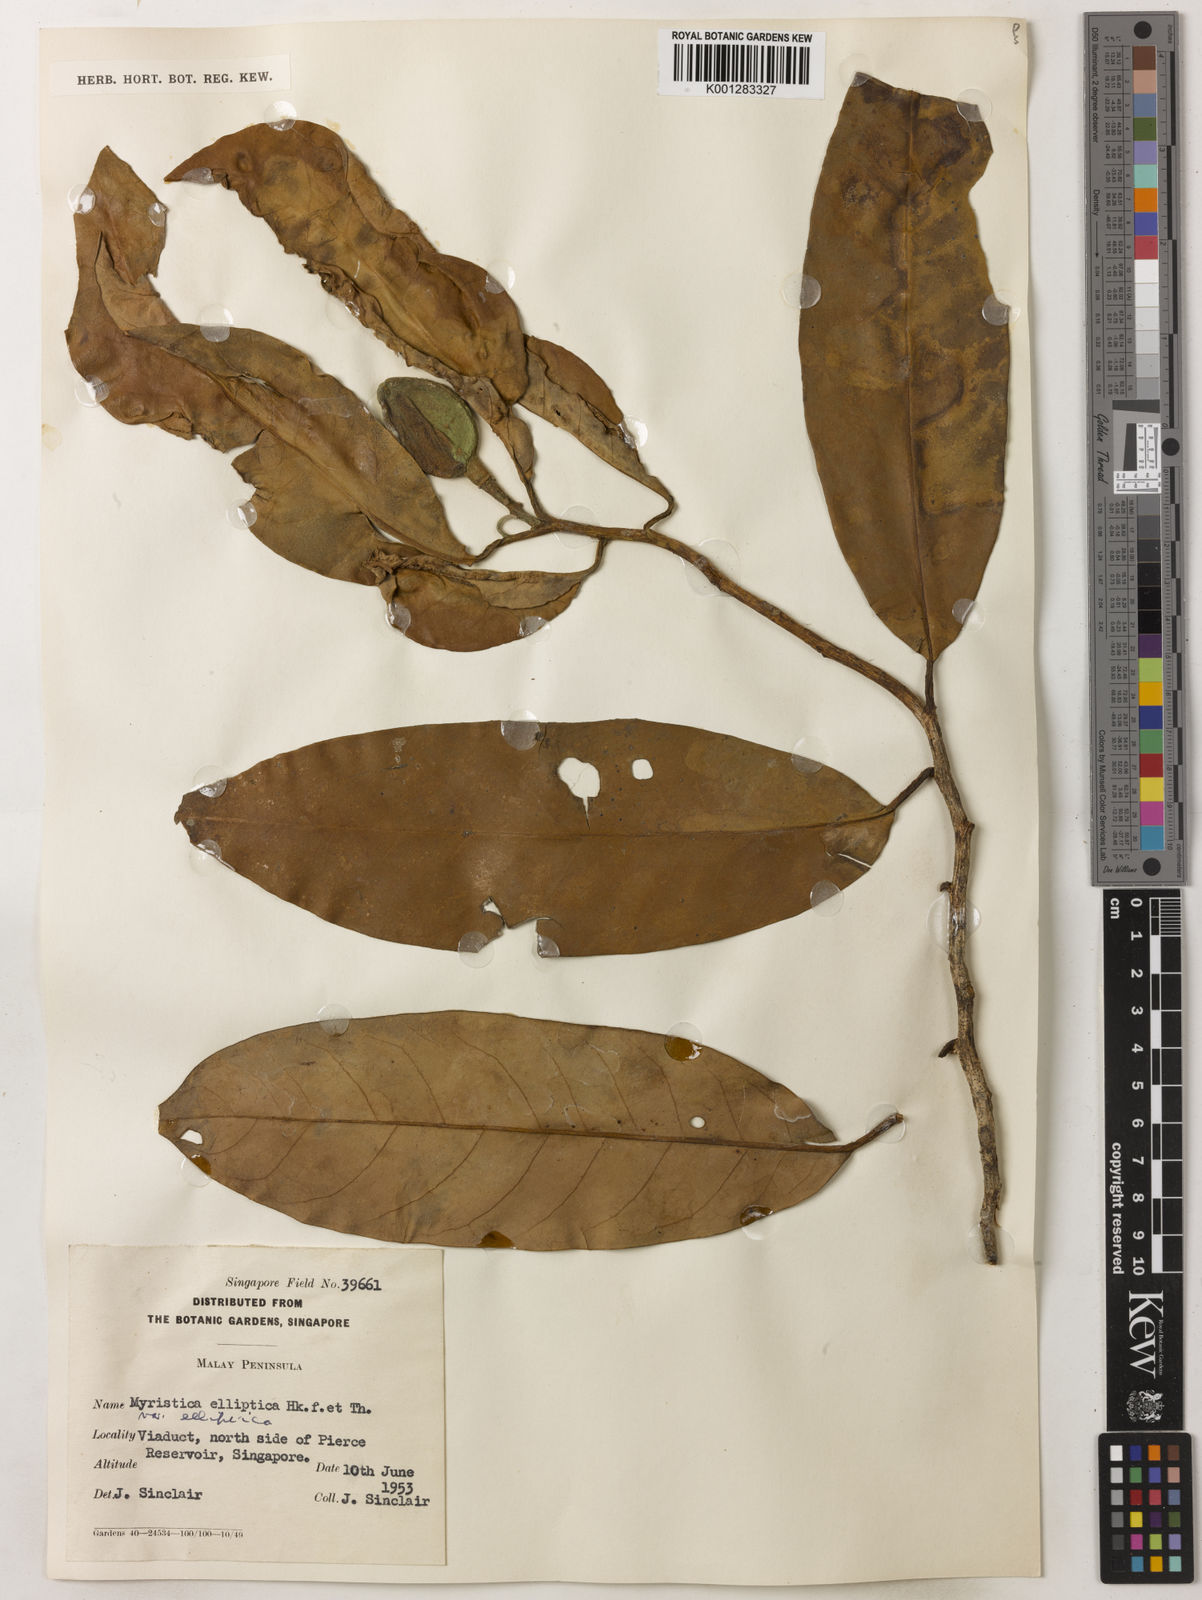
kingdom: Plantae
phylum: Tracheophyta
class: Magnoliopsida
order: Magnoliales
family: Myristicaceae
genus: Myristica
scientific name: Myristica elliptica
